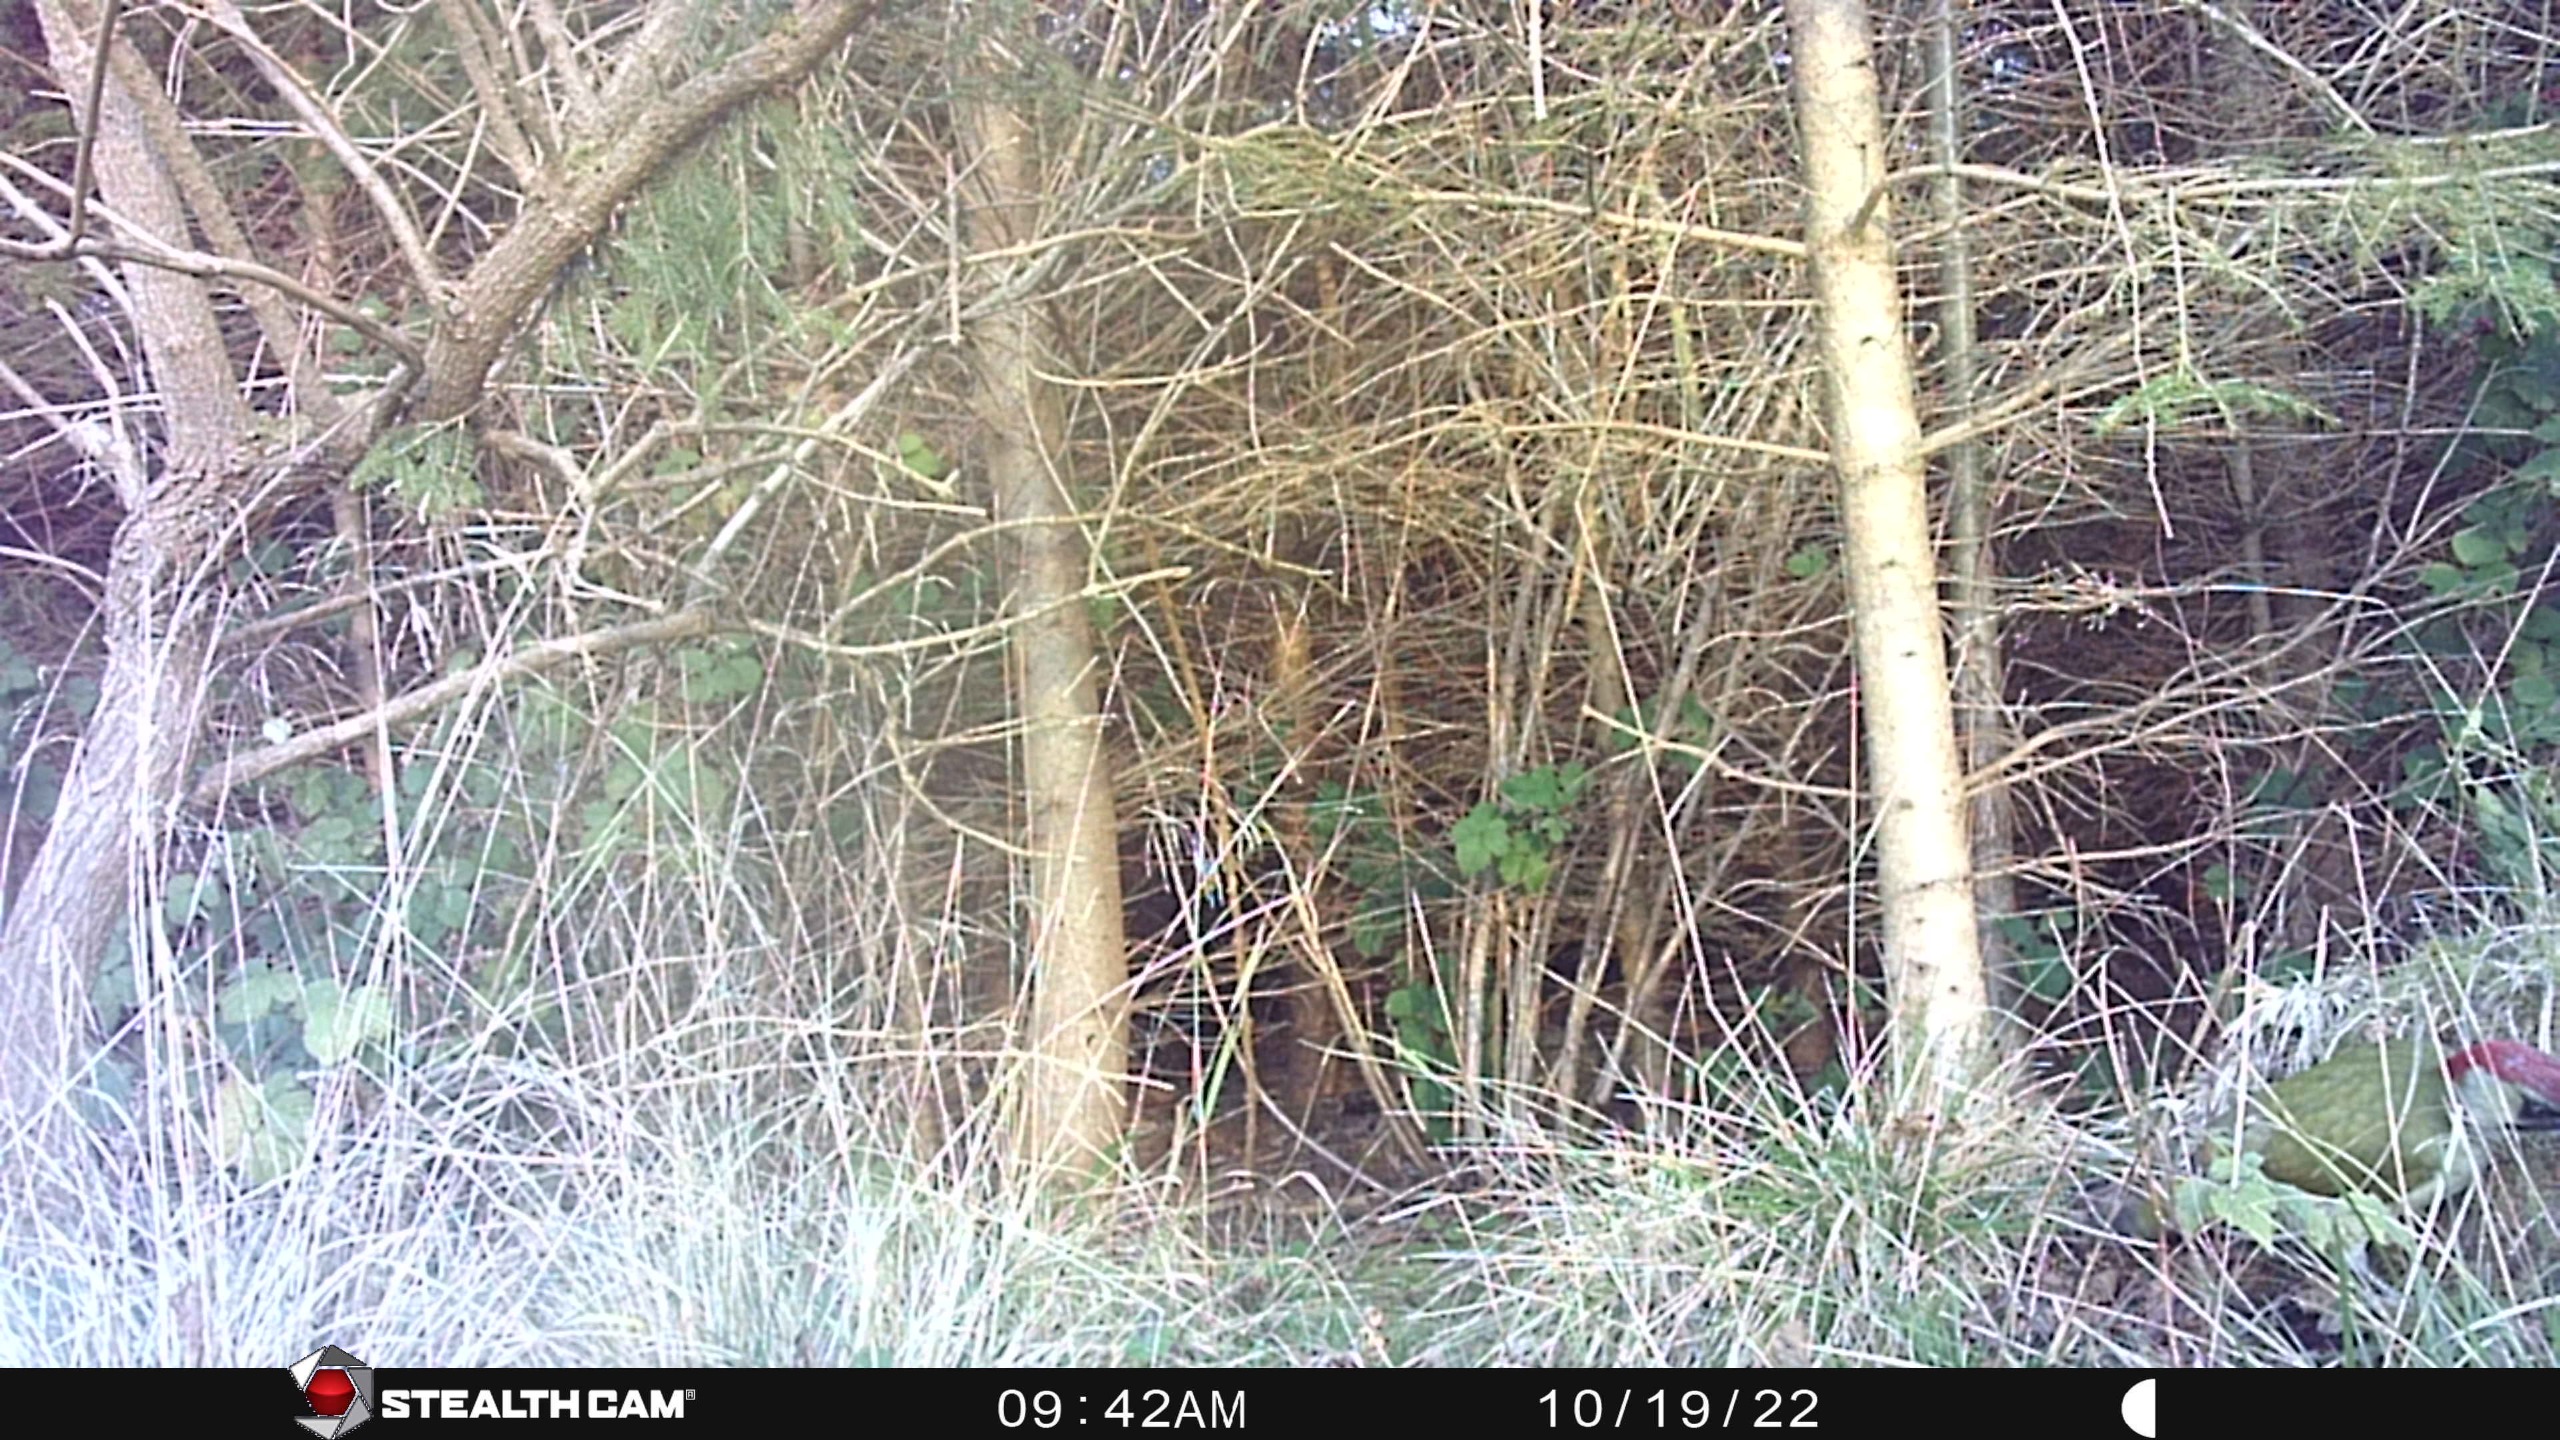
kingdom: Animalia
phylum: Chordata
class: Aves
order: Piciformes
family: Picidae
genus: Picus
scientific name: Picus viridis
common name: Grønspætte
